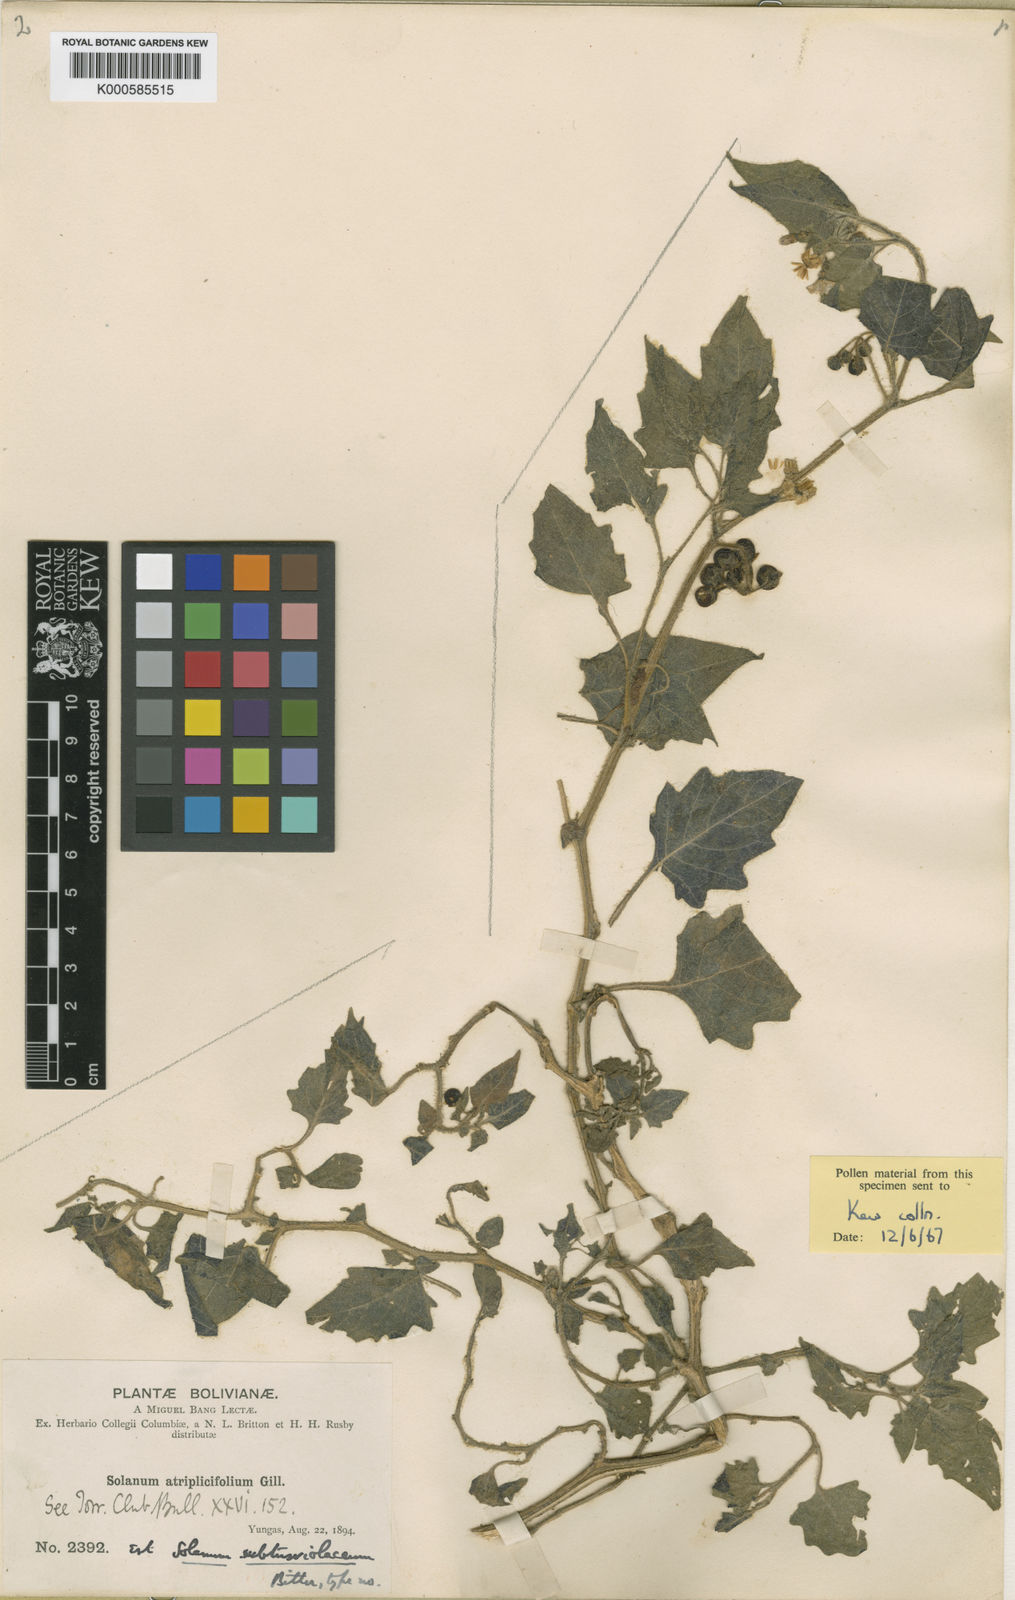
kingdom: Plantae
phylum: Tracheophyta
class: Magnoliopsida
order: Solanales
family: Solanaceae
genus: Solanum
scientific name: Solanum grandidentatum
